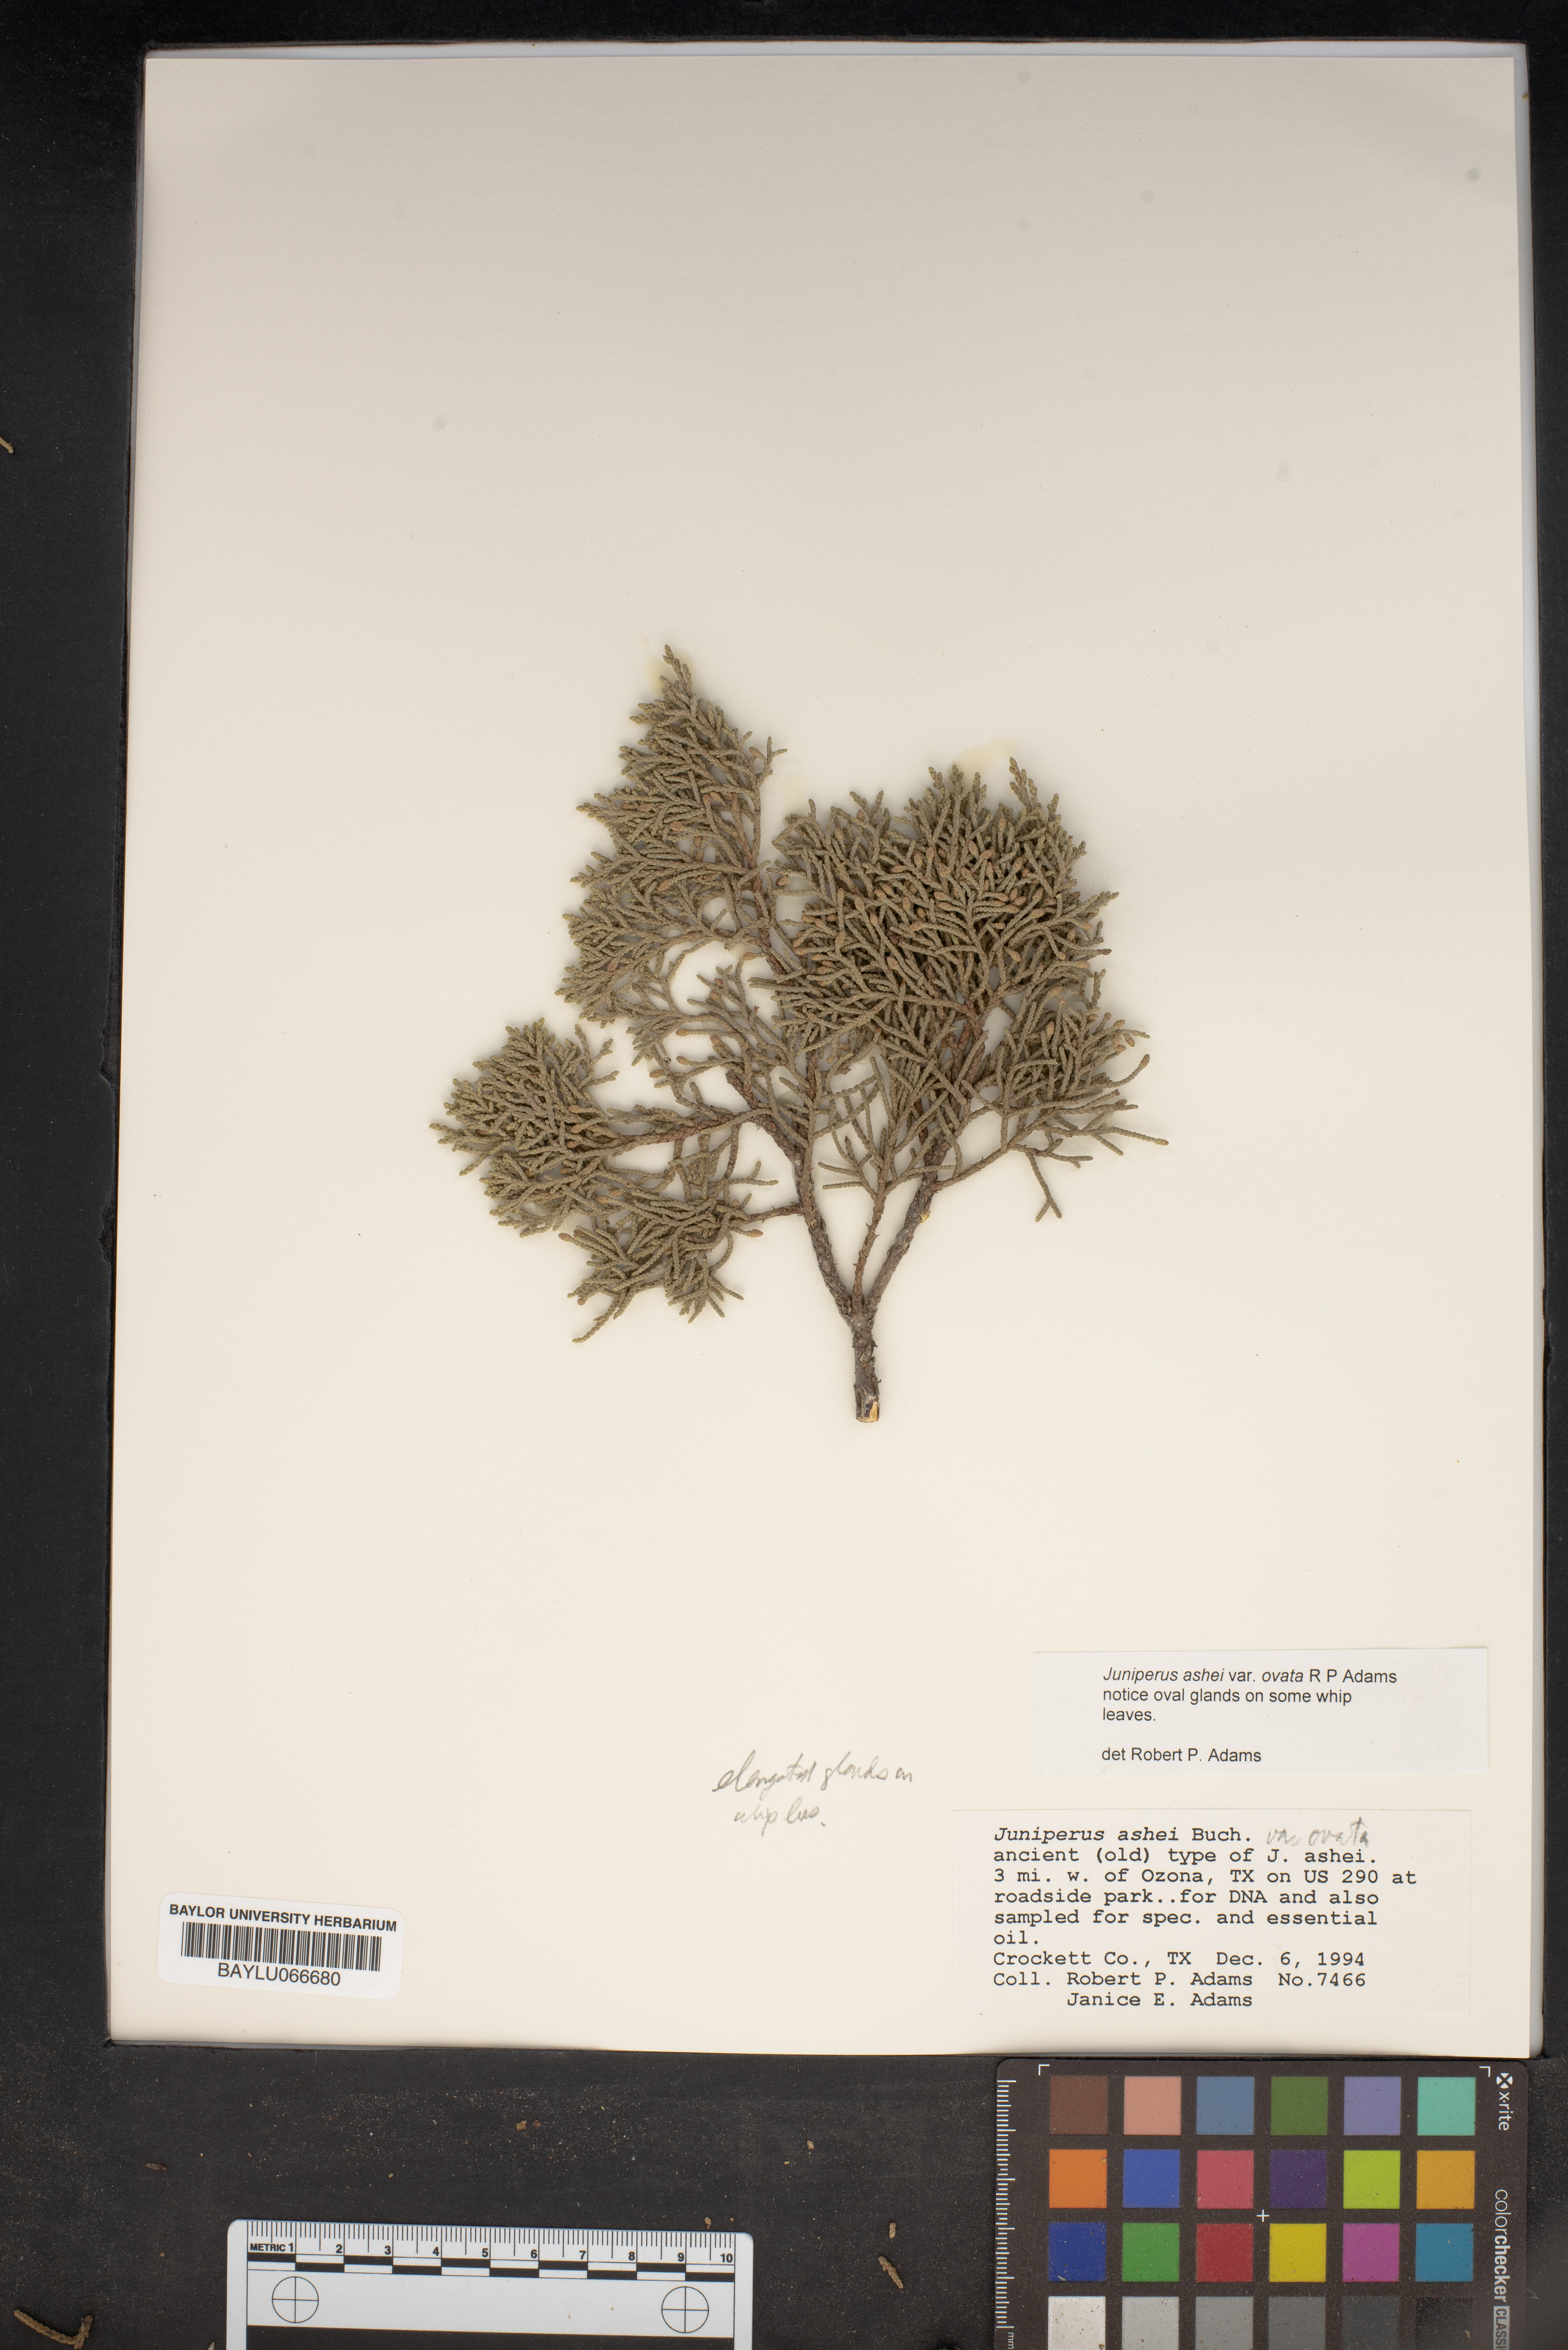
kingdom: Plantae
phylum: Tracheophyta
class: Pinopsida
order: Pinales
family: Cupressaceae
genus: Juniperus
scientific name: Juniperus ashei
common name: Mexican juniper
